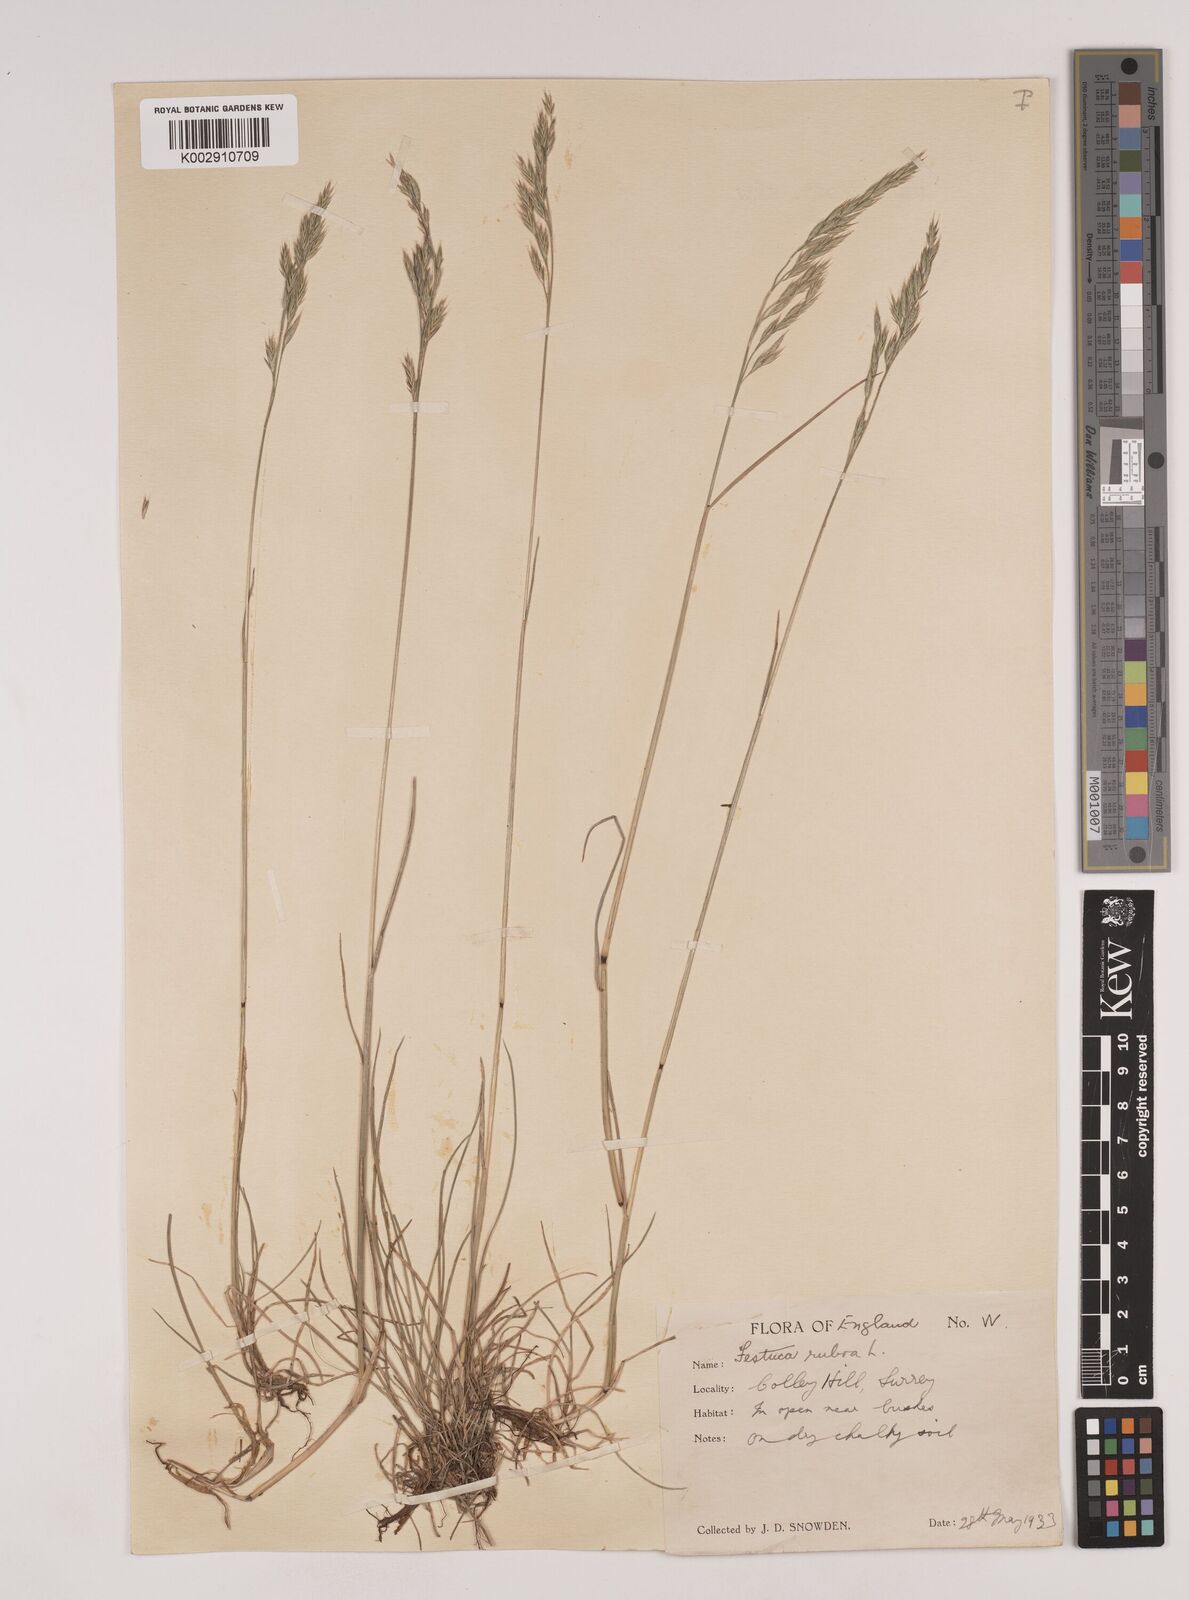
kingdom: Plantae
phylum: Tracheophyta
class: Liliopsida
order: Poales
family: Poaceae
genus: Festuca
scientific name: Festuca rubra
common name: Red fescue
